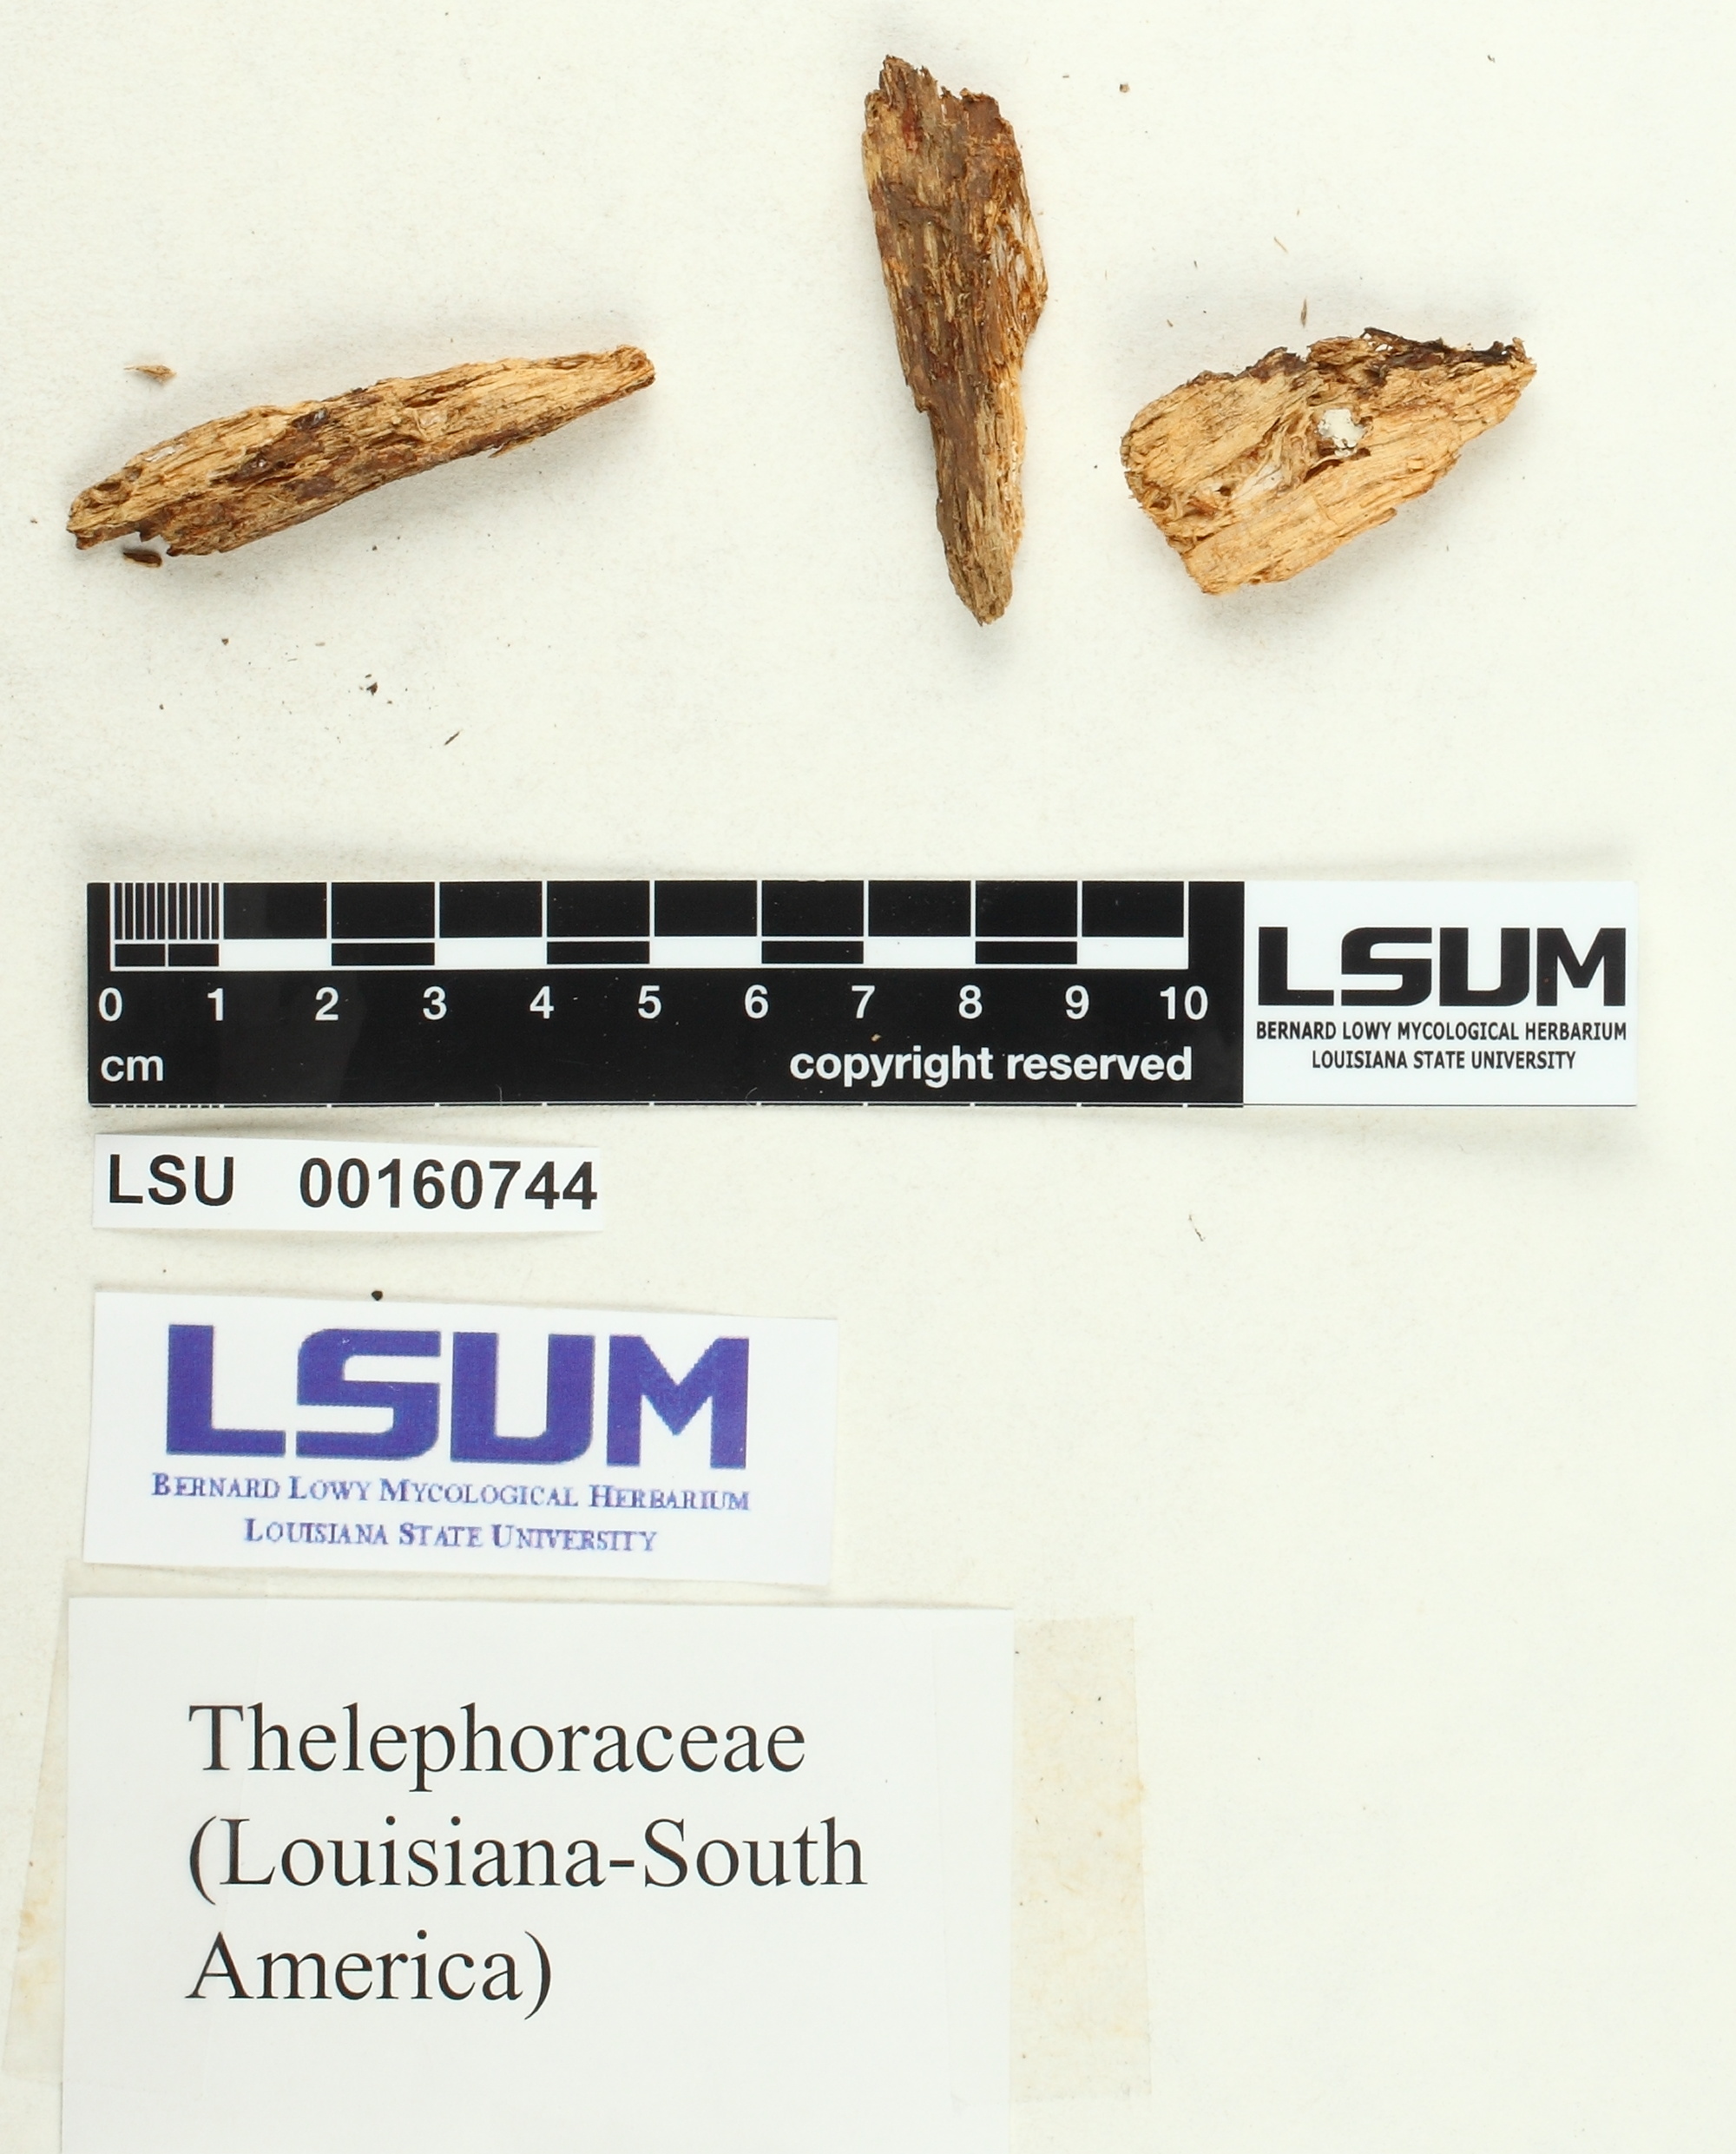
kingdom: Fungi
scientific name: Fungi
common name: Fungi
